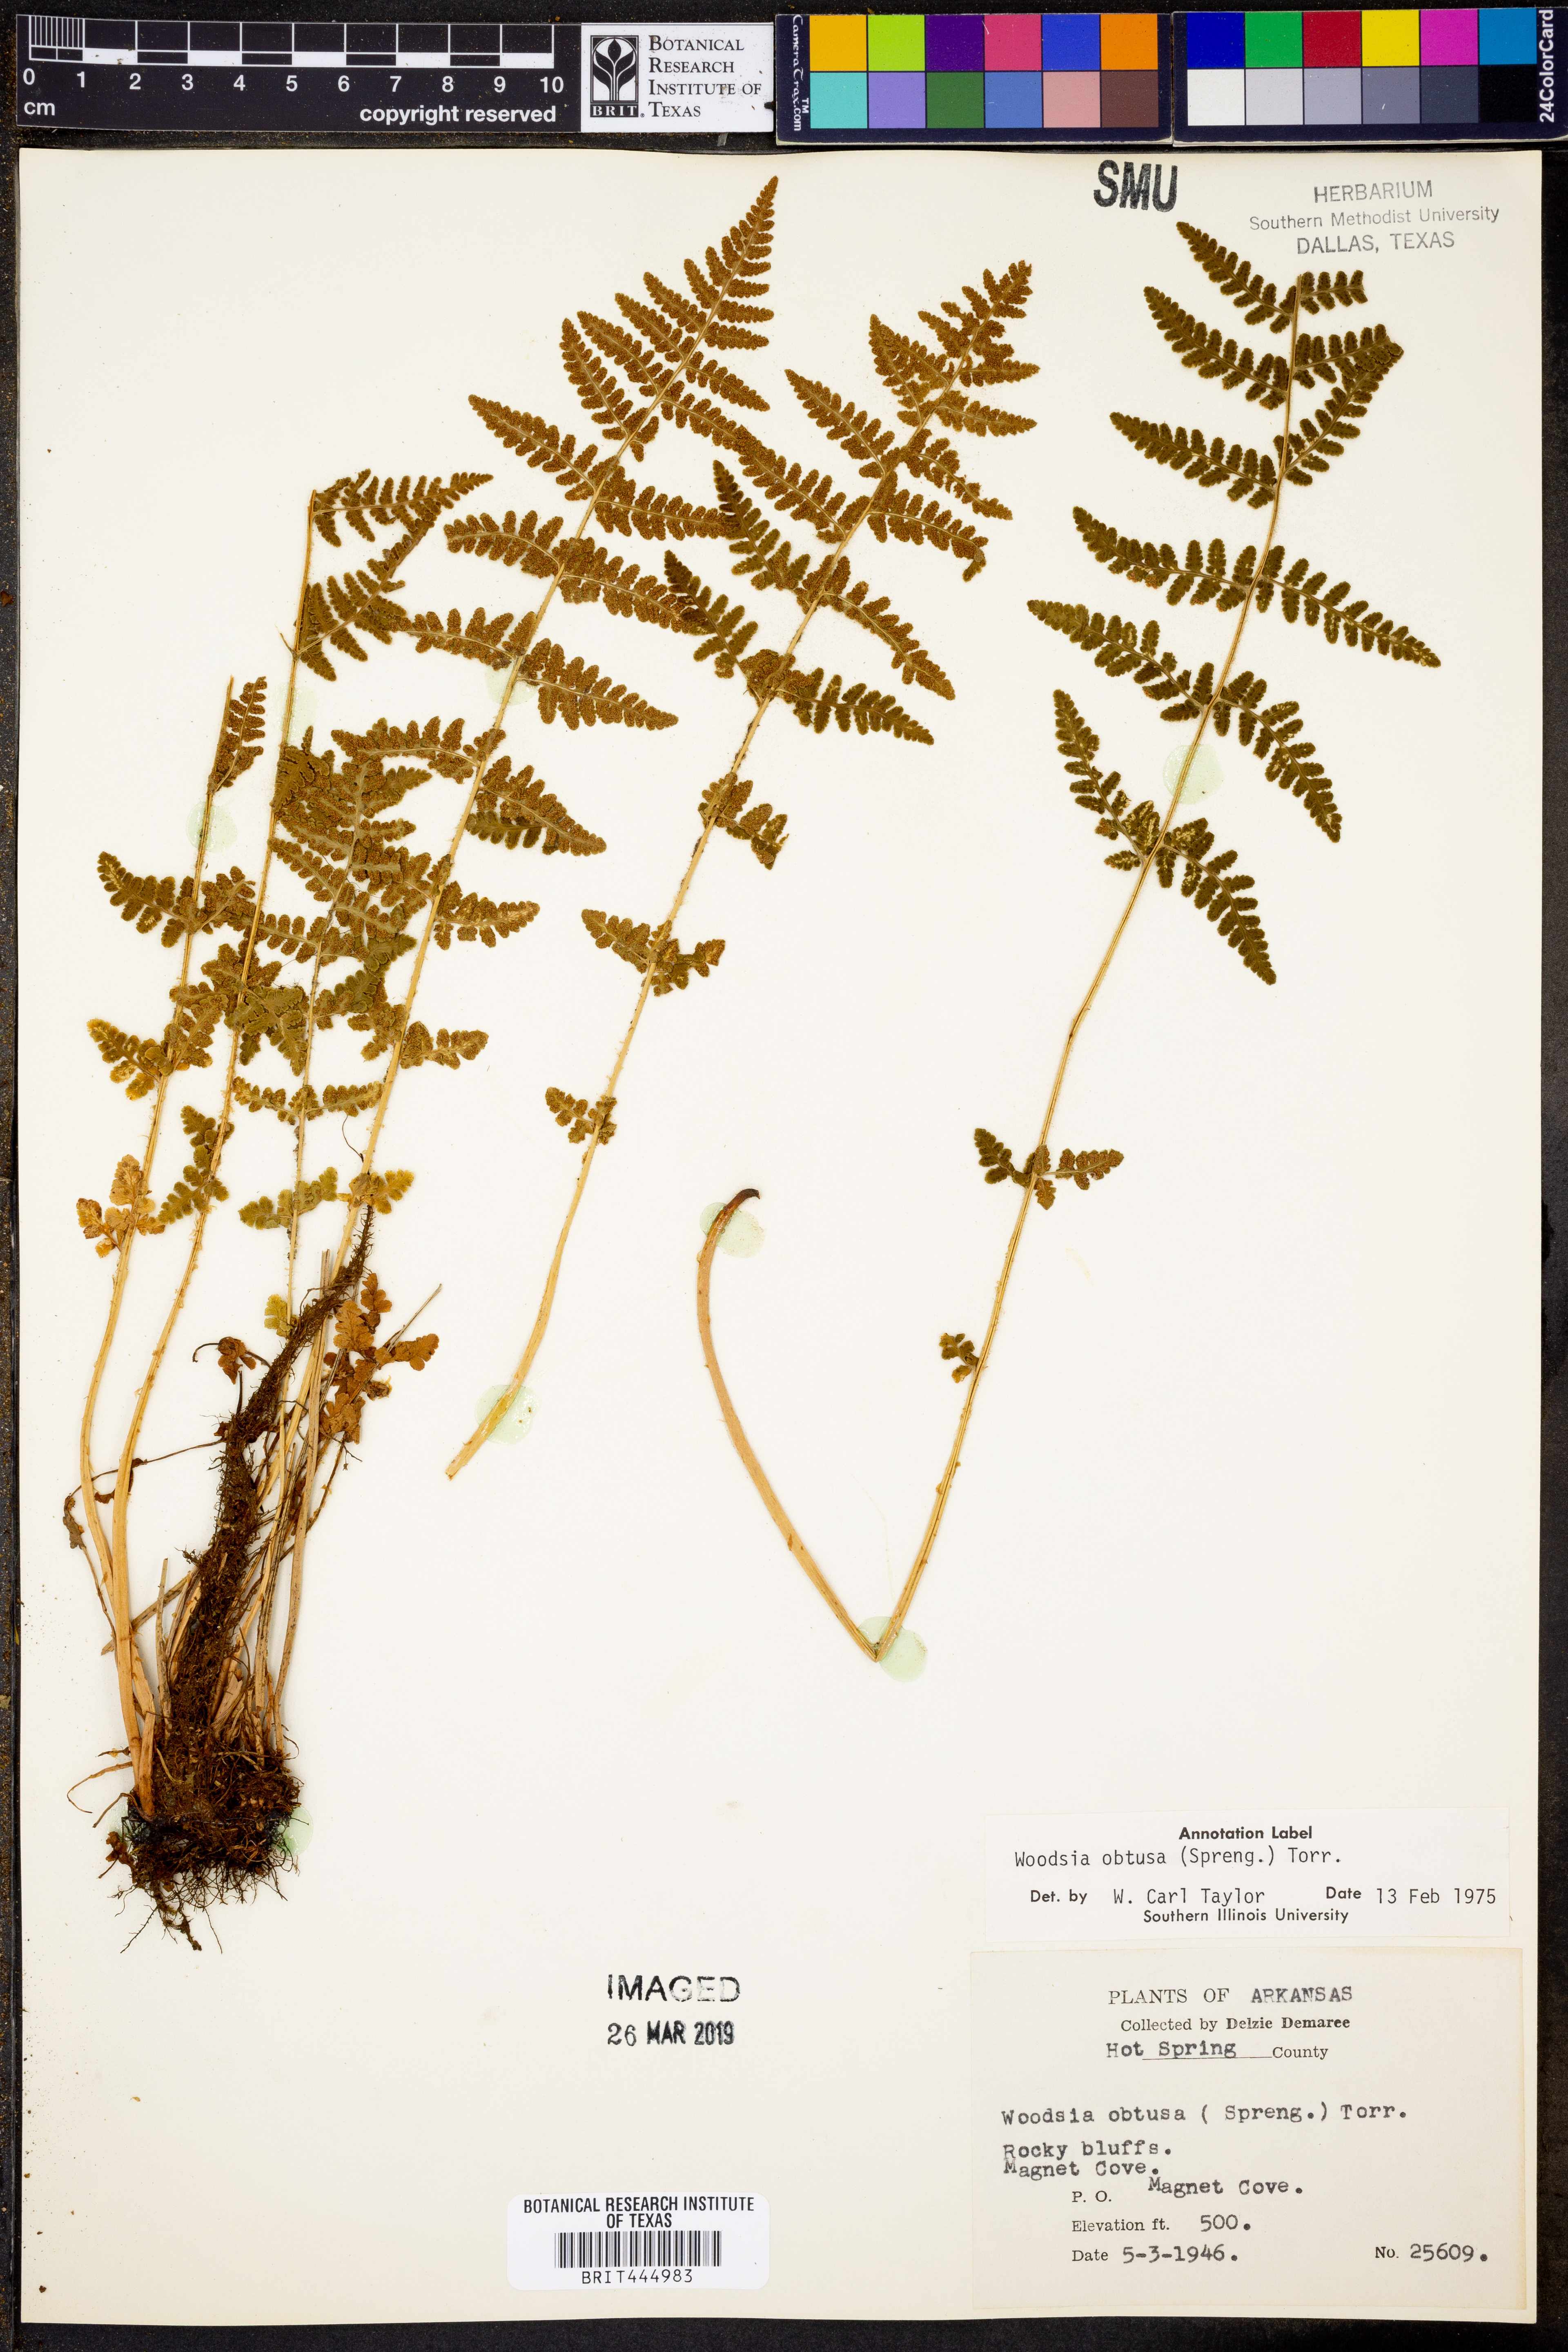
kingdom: Plantae
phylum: Tracheophyta
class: Polypodiopsida
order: Polypodiales
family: Woodsiaceae
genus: Physematium
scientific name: Physematium obtusum
